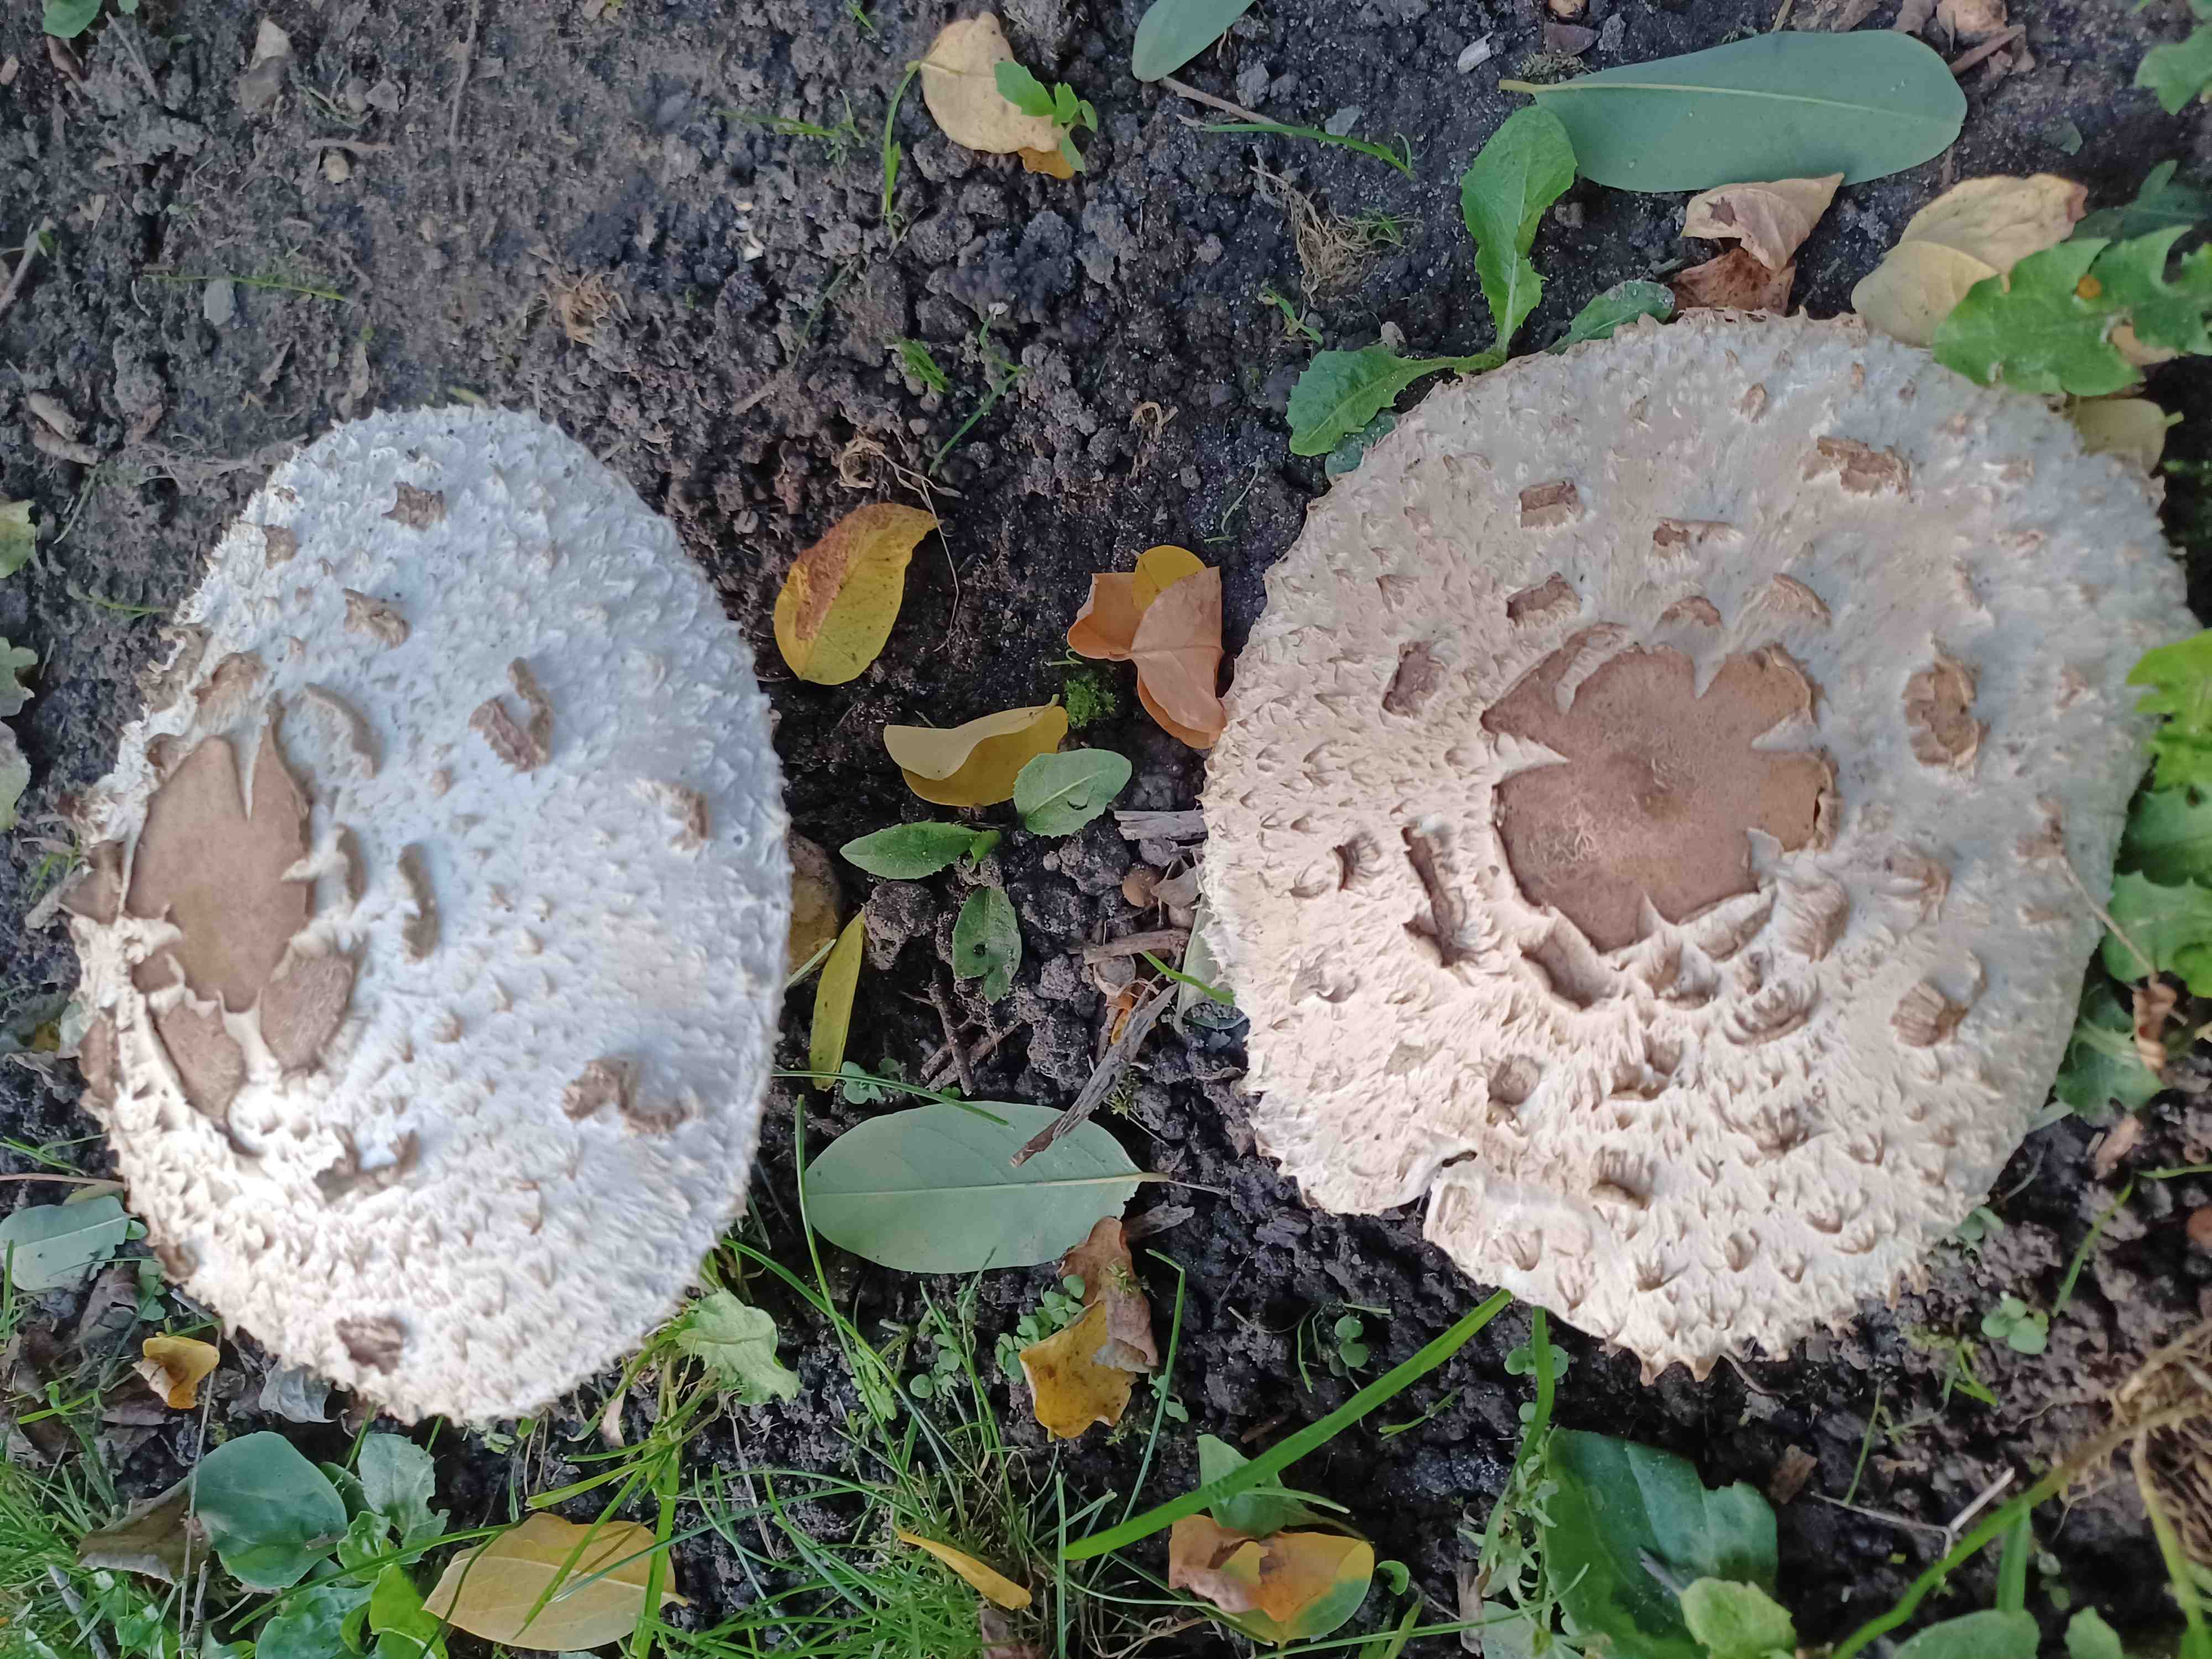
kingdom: Fungi
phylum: Basidiomycota
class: Agaricomycetes
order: Agaricales
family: Agaricaceae
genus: Chlorophyllum
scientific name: Chlorophyllum rhacodes
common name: ægte rabarberhat
